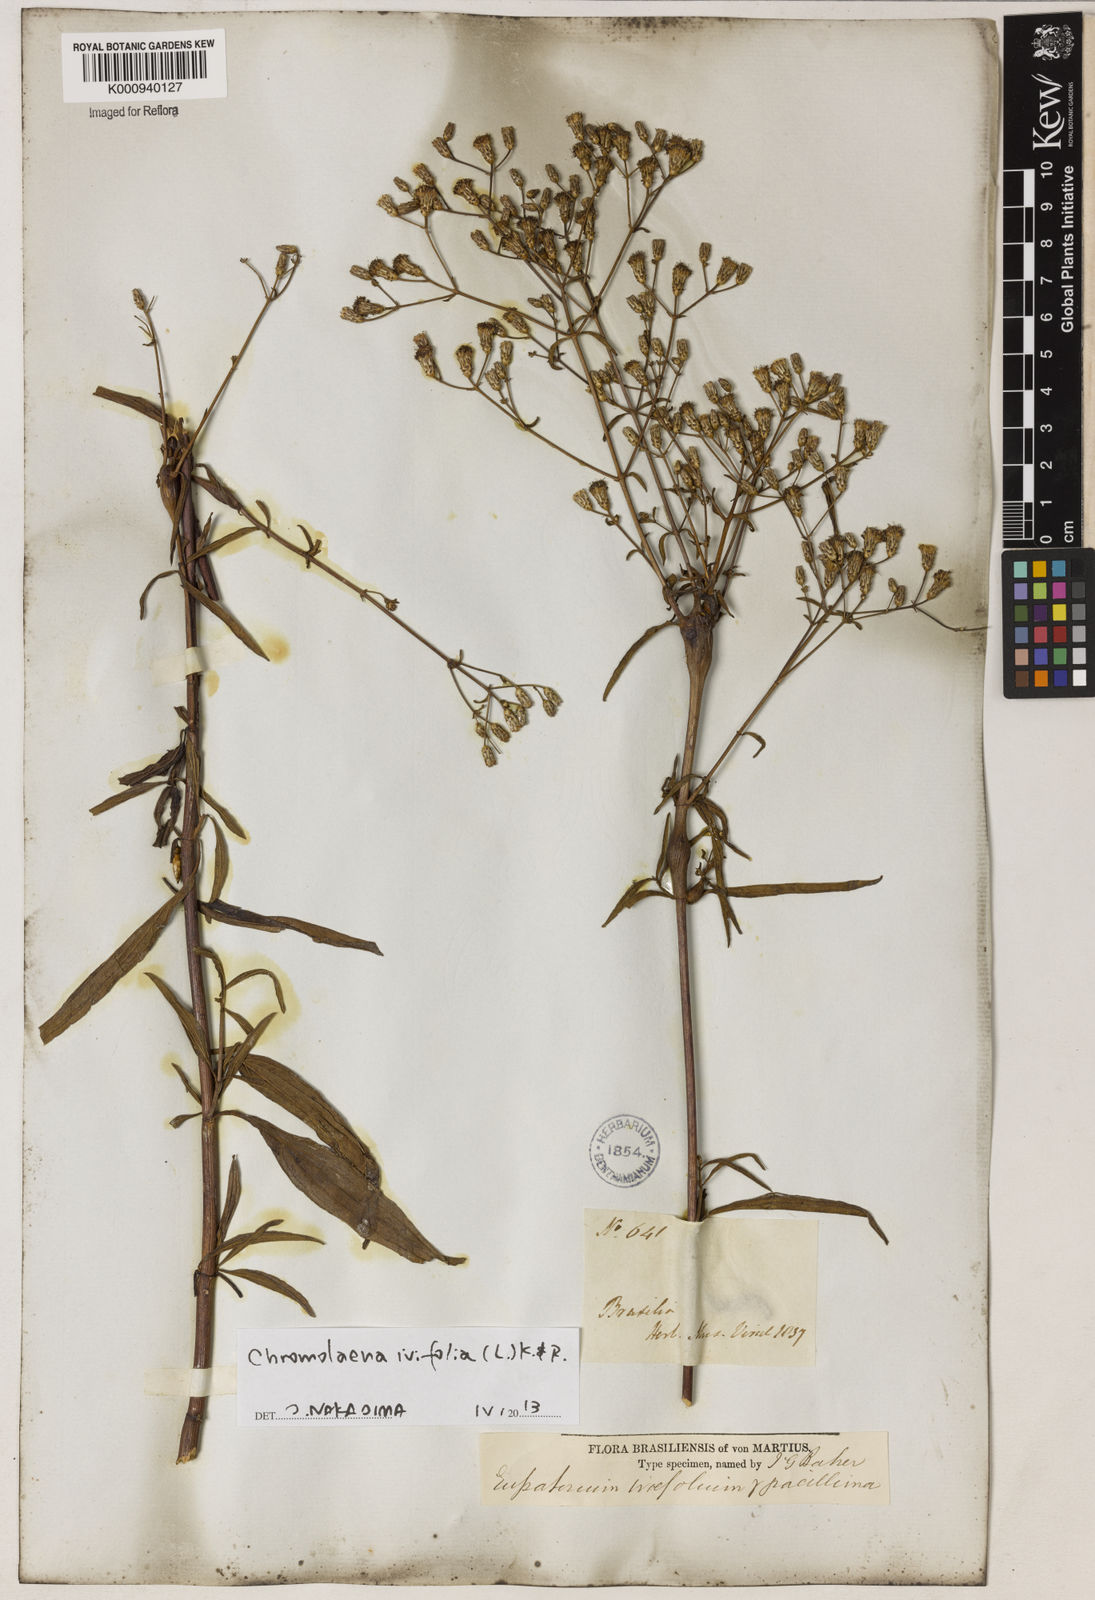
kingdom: Plantae
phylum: Tracheophyta
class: Magnoliopsida
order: Asterales
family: Asteraceae
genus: Chromolaena
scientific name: Chromolaena ivifolia
